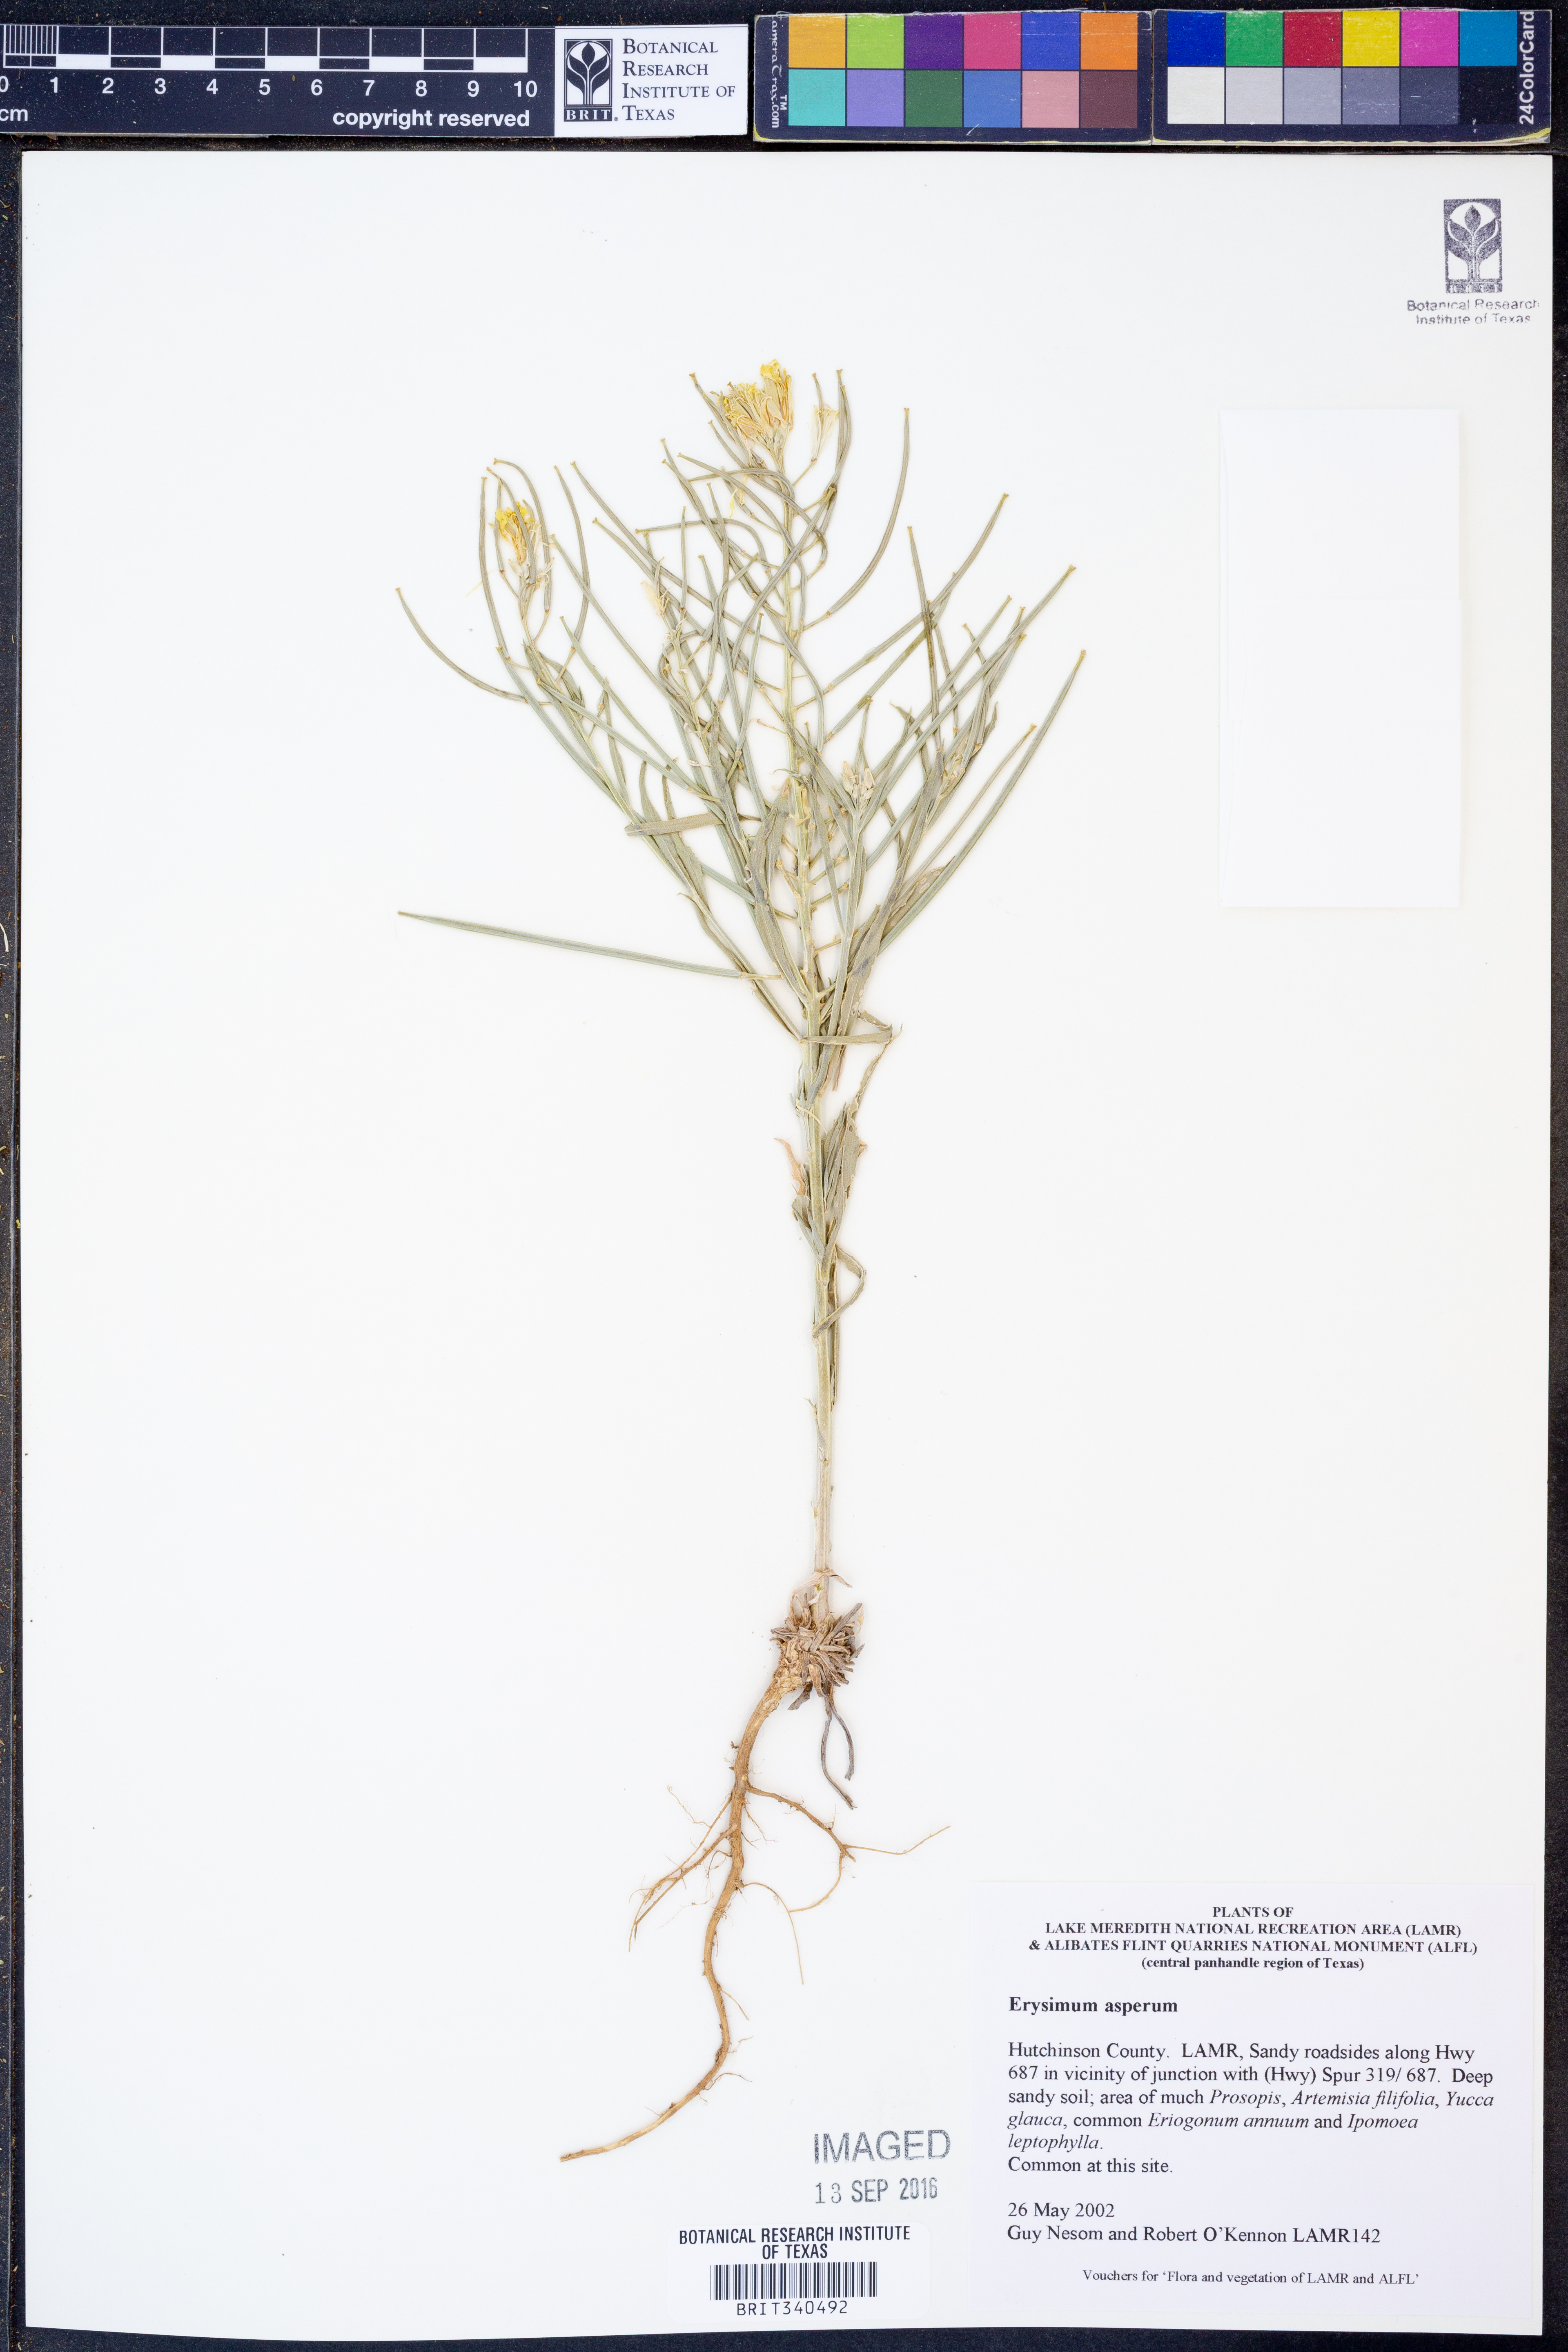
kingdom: Plantae
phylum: Tracheophyta
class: Magnoliopsida
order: Brassicales
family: Brassicaceae
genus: Erysimum
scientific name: Erysimum asperum
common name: Western wallflower
